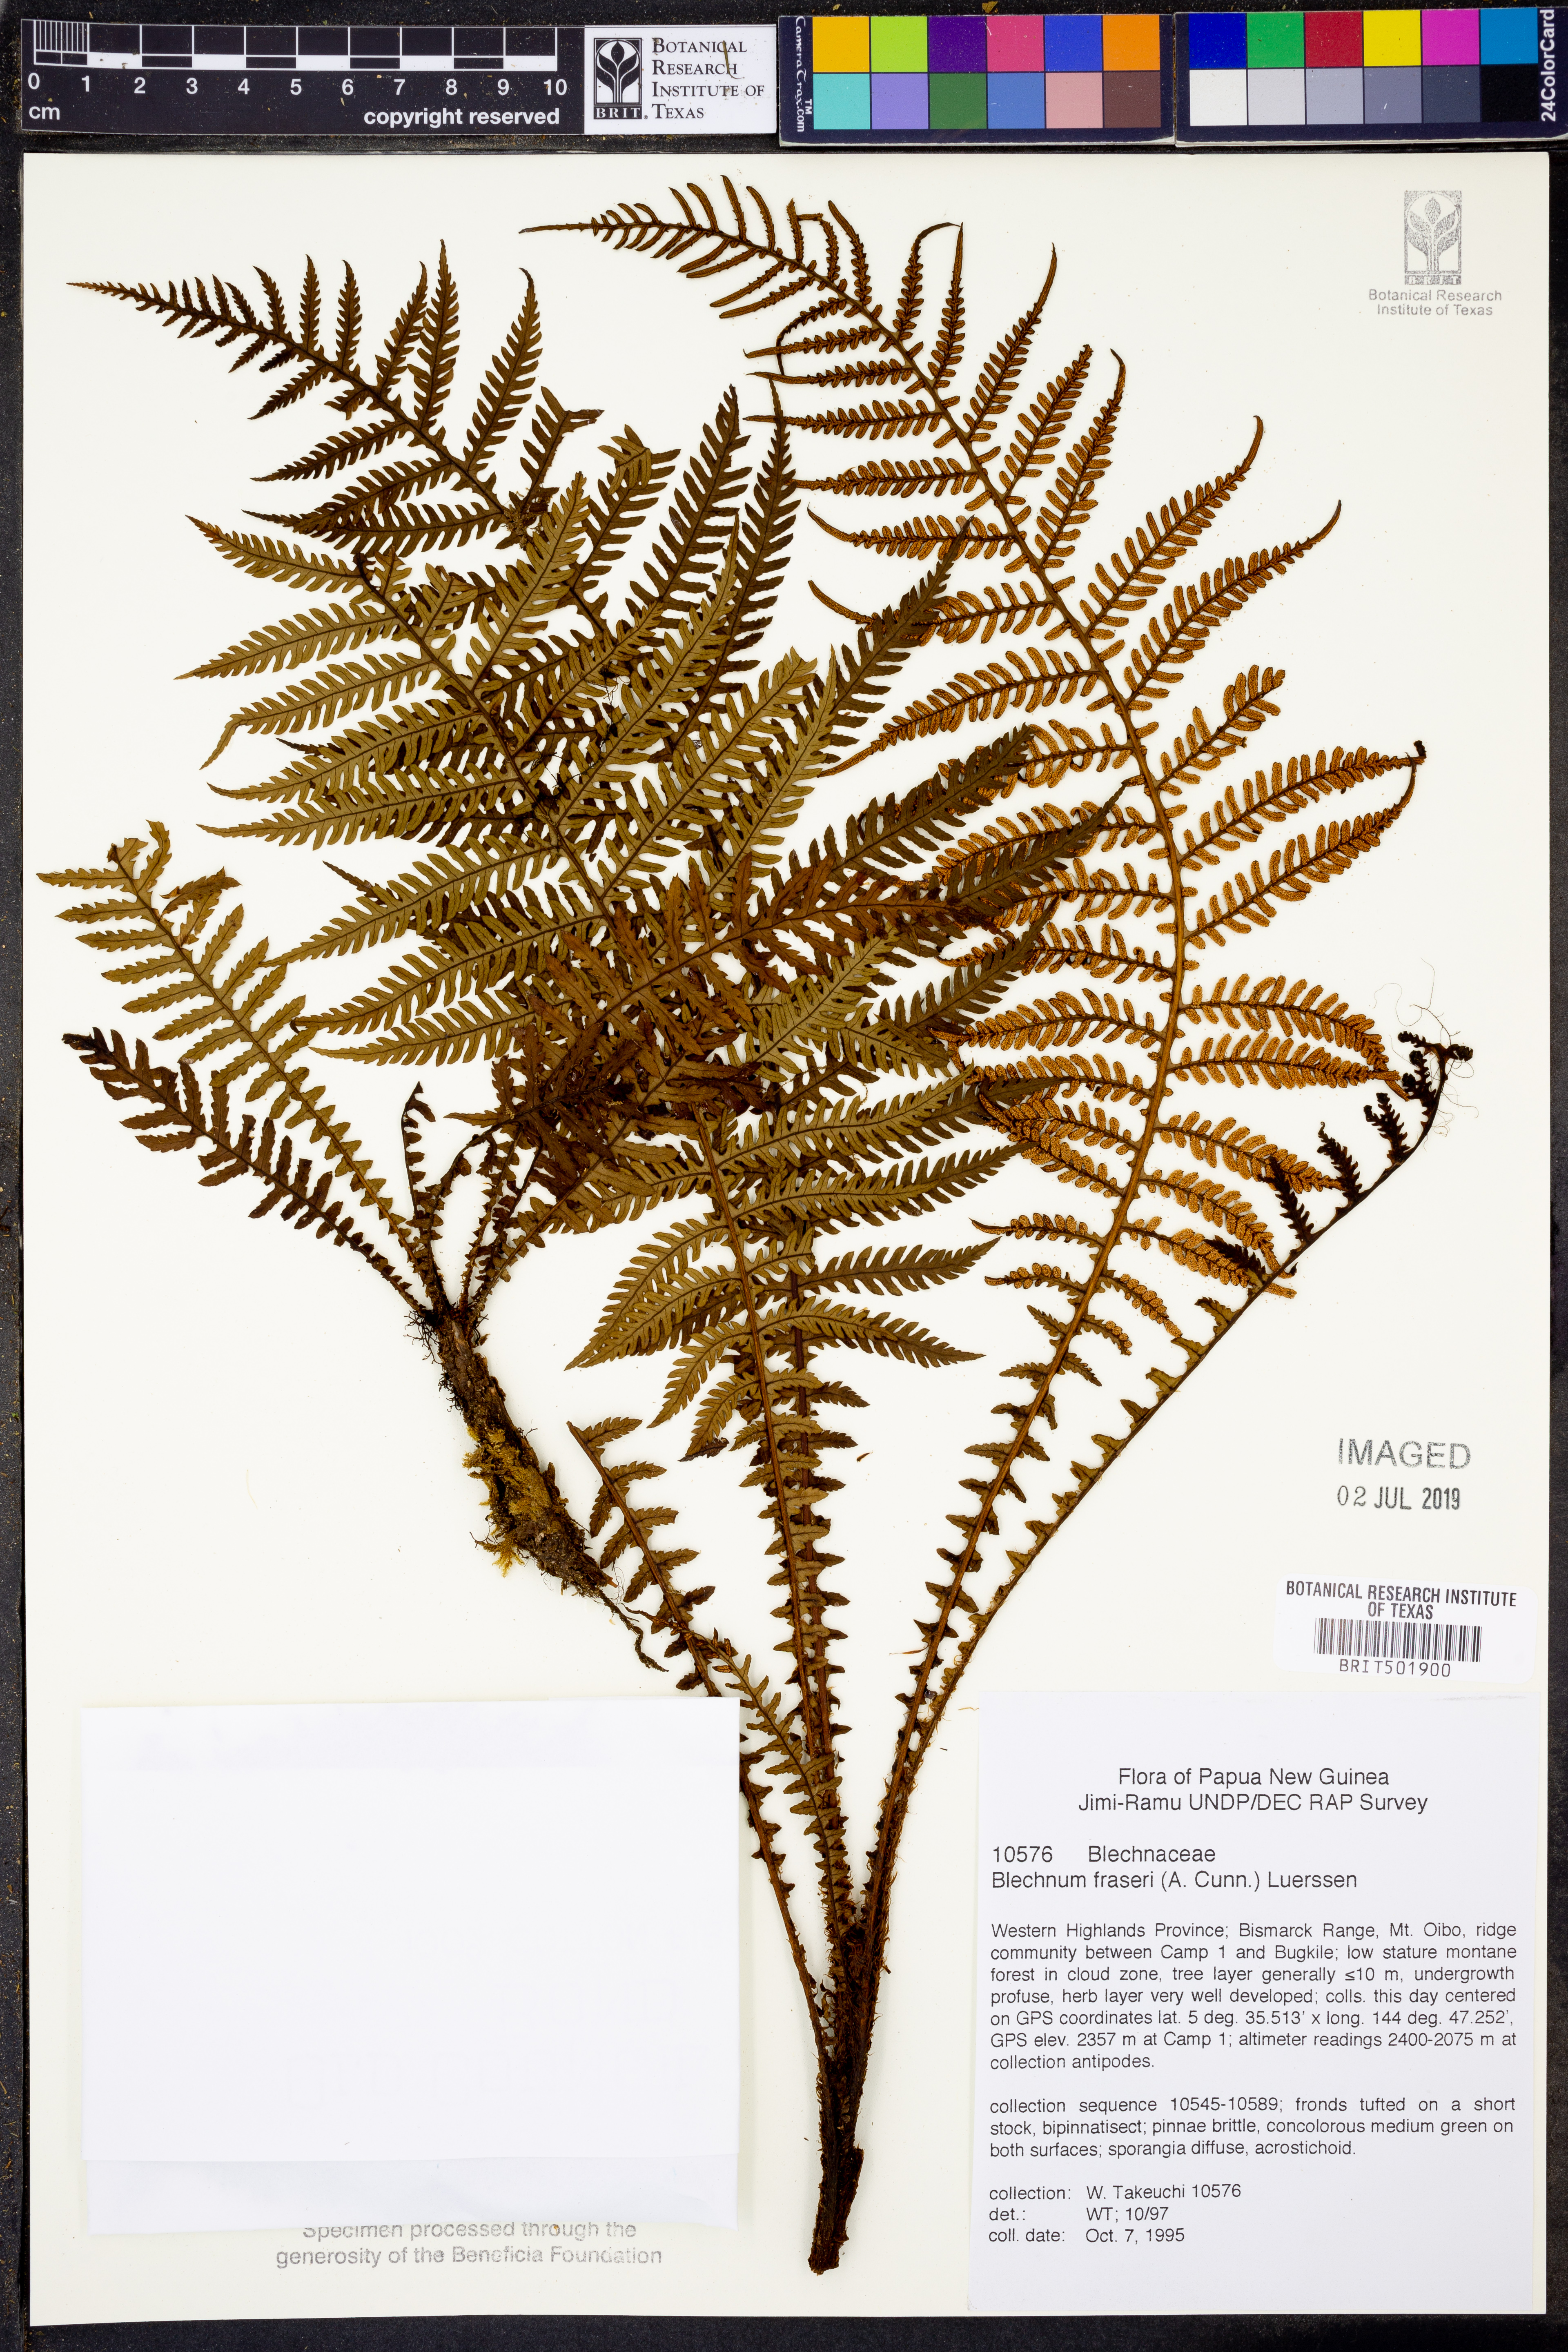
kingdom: Plantae
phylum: Tracheophyta
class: Polypodiopsida
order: Polypodiales
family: Blechnaceae
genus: Diploblechnum
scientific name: Diploblechnum fraseri
